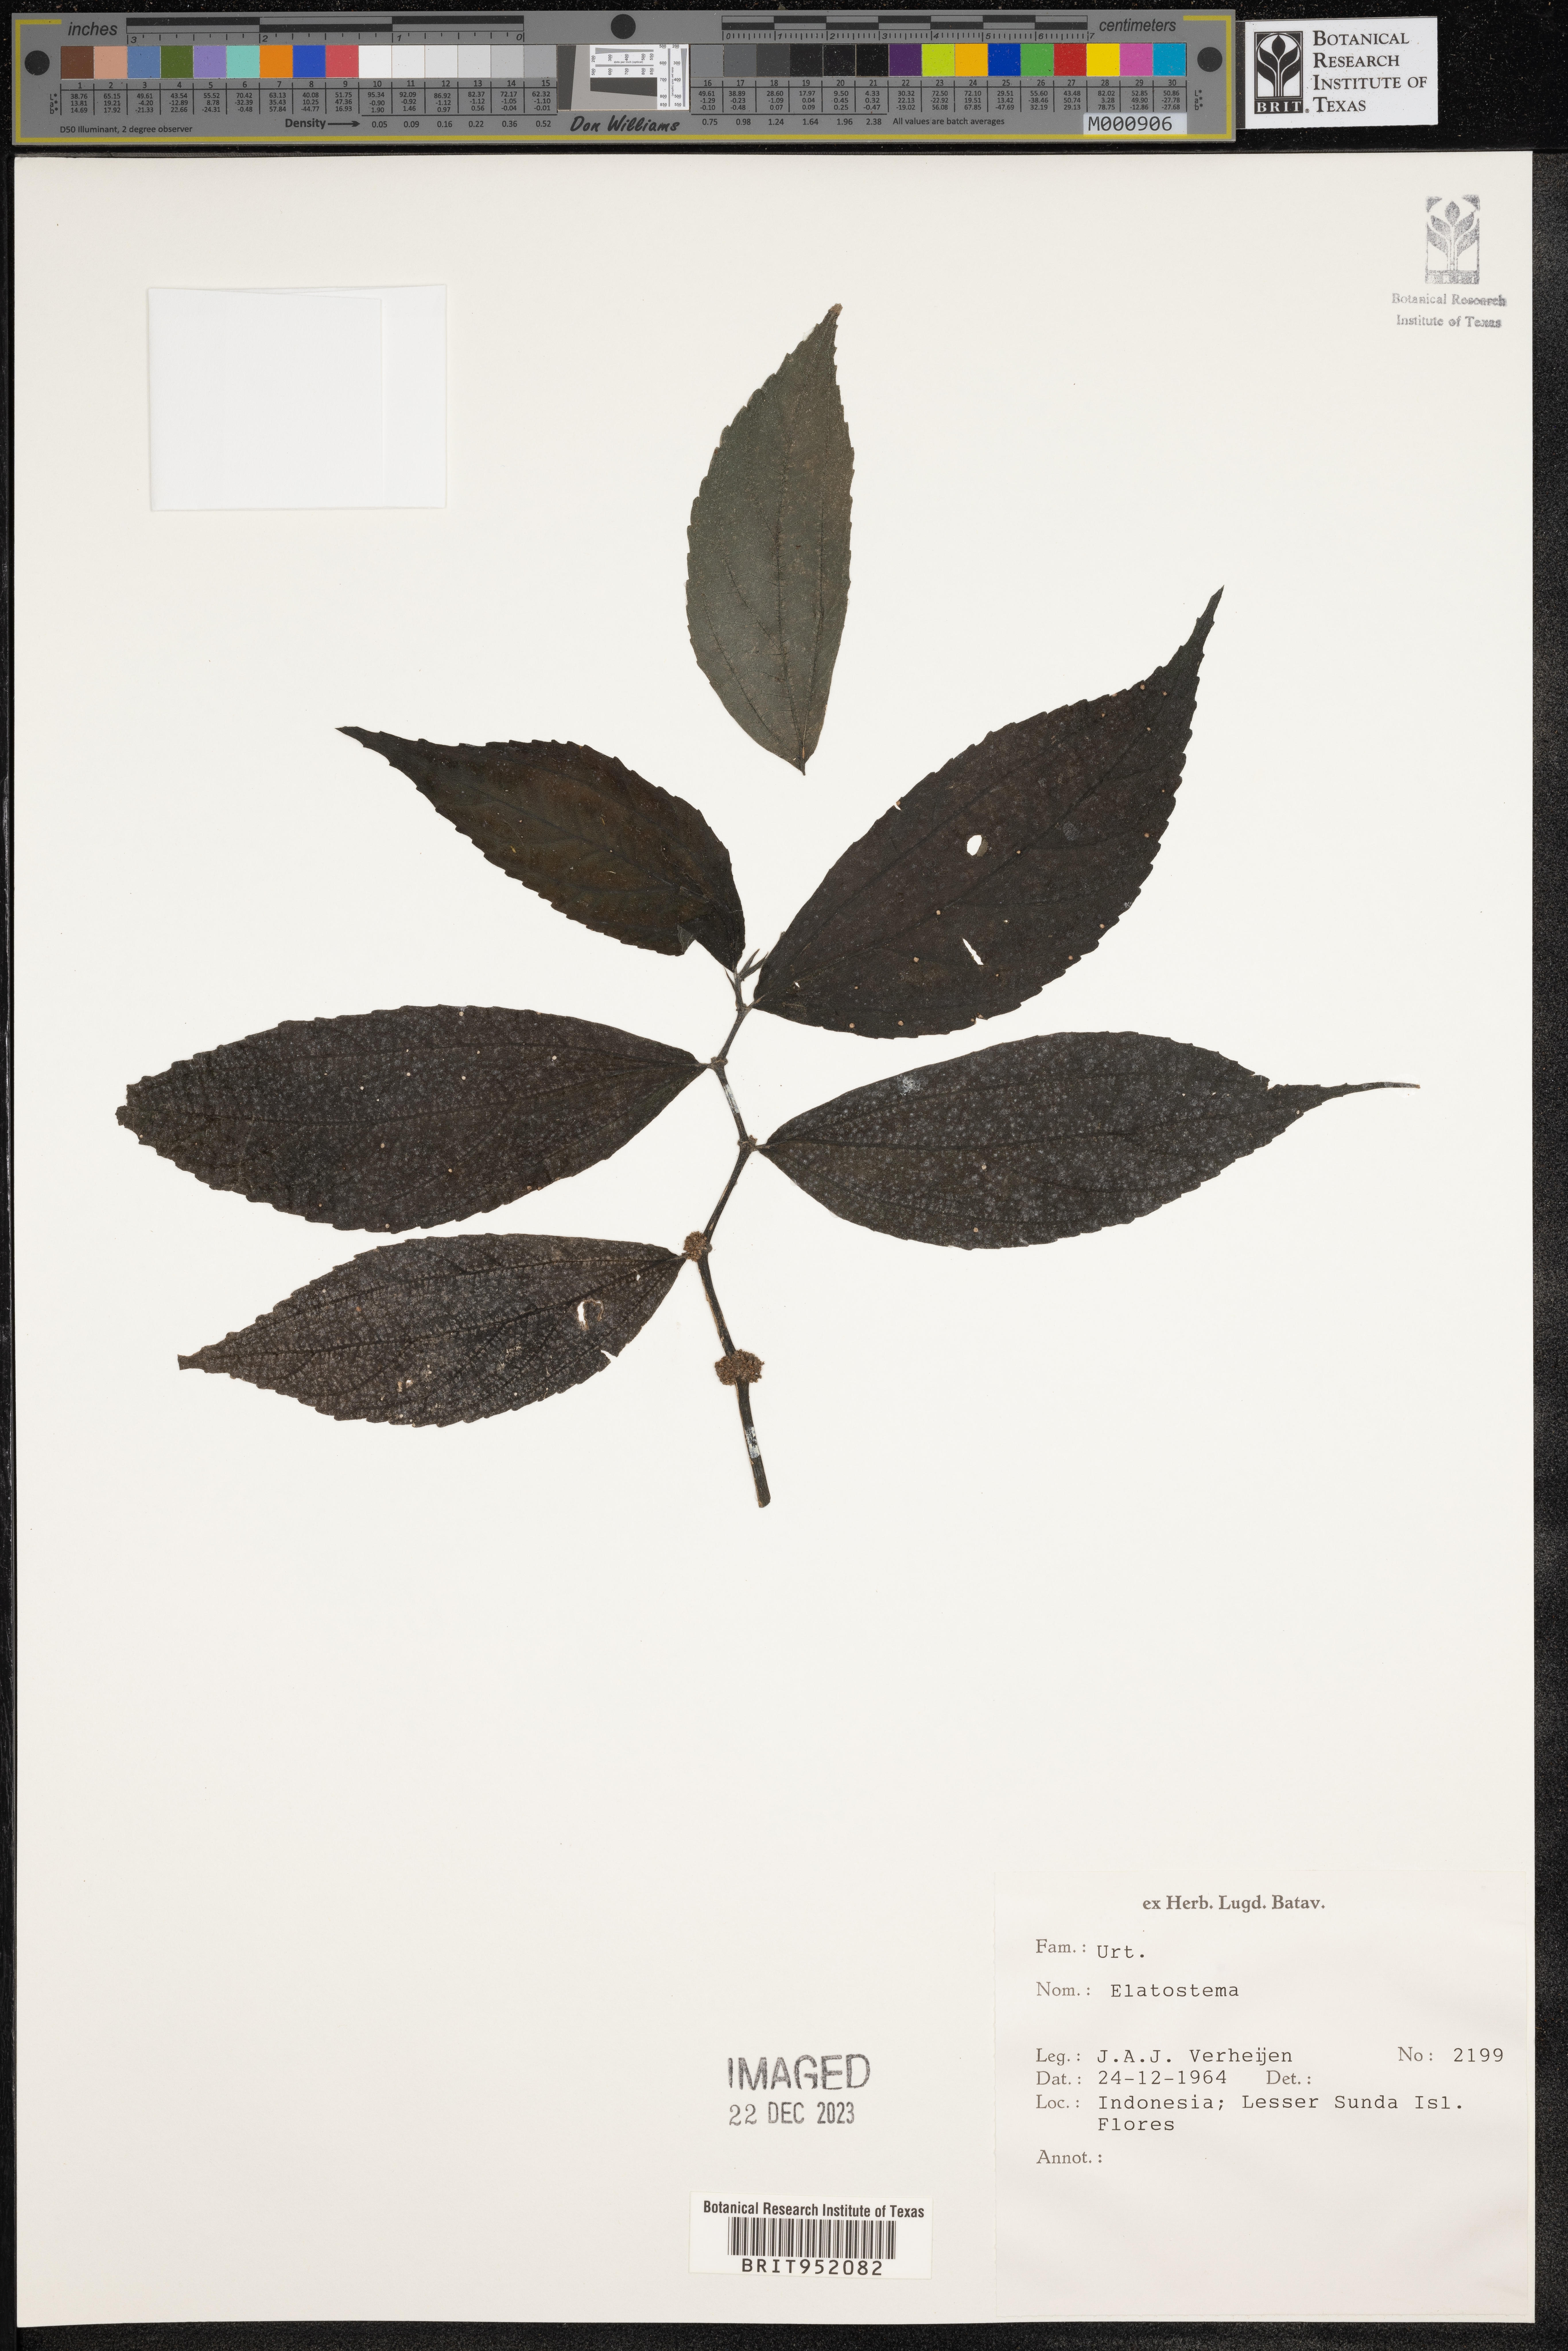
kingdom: Plantae
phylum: Tracheophyta
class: Magnoliopsida
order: Rosales
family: Urticaceae
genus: Elatostema
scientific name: Elatostema
